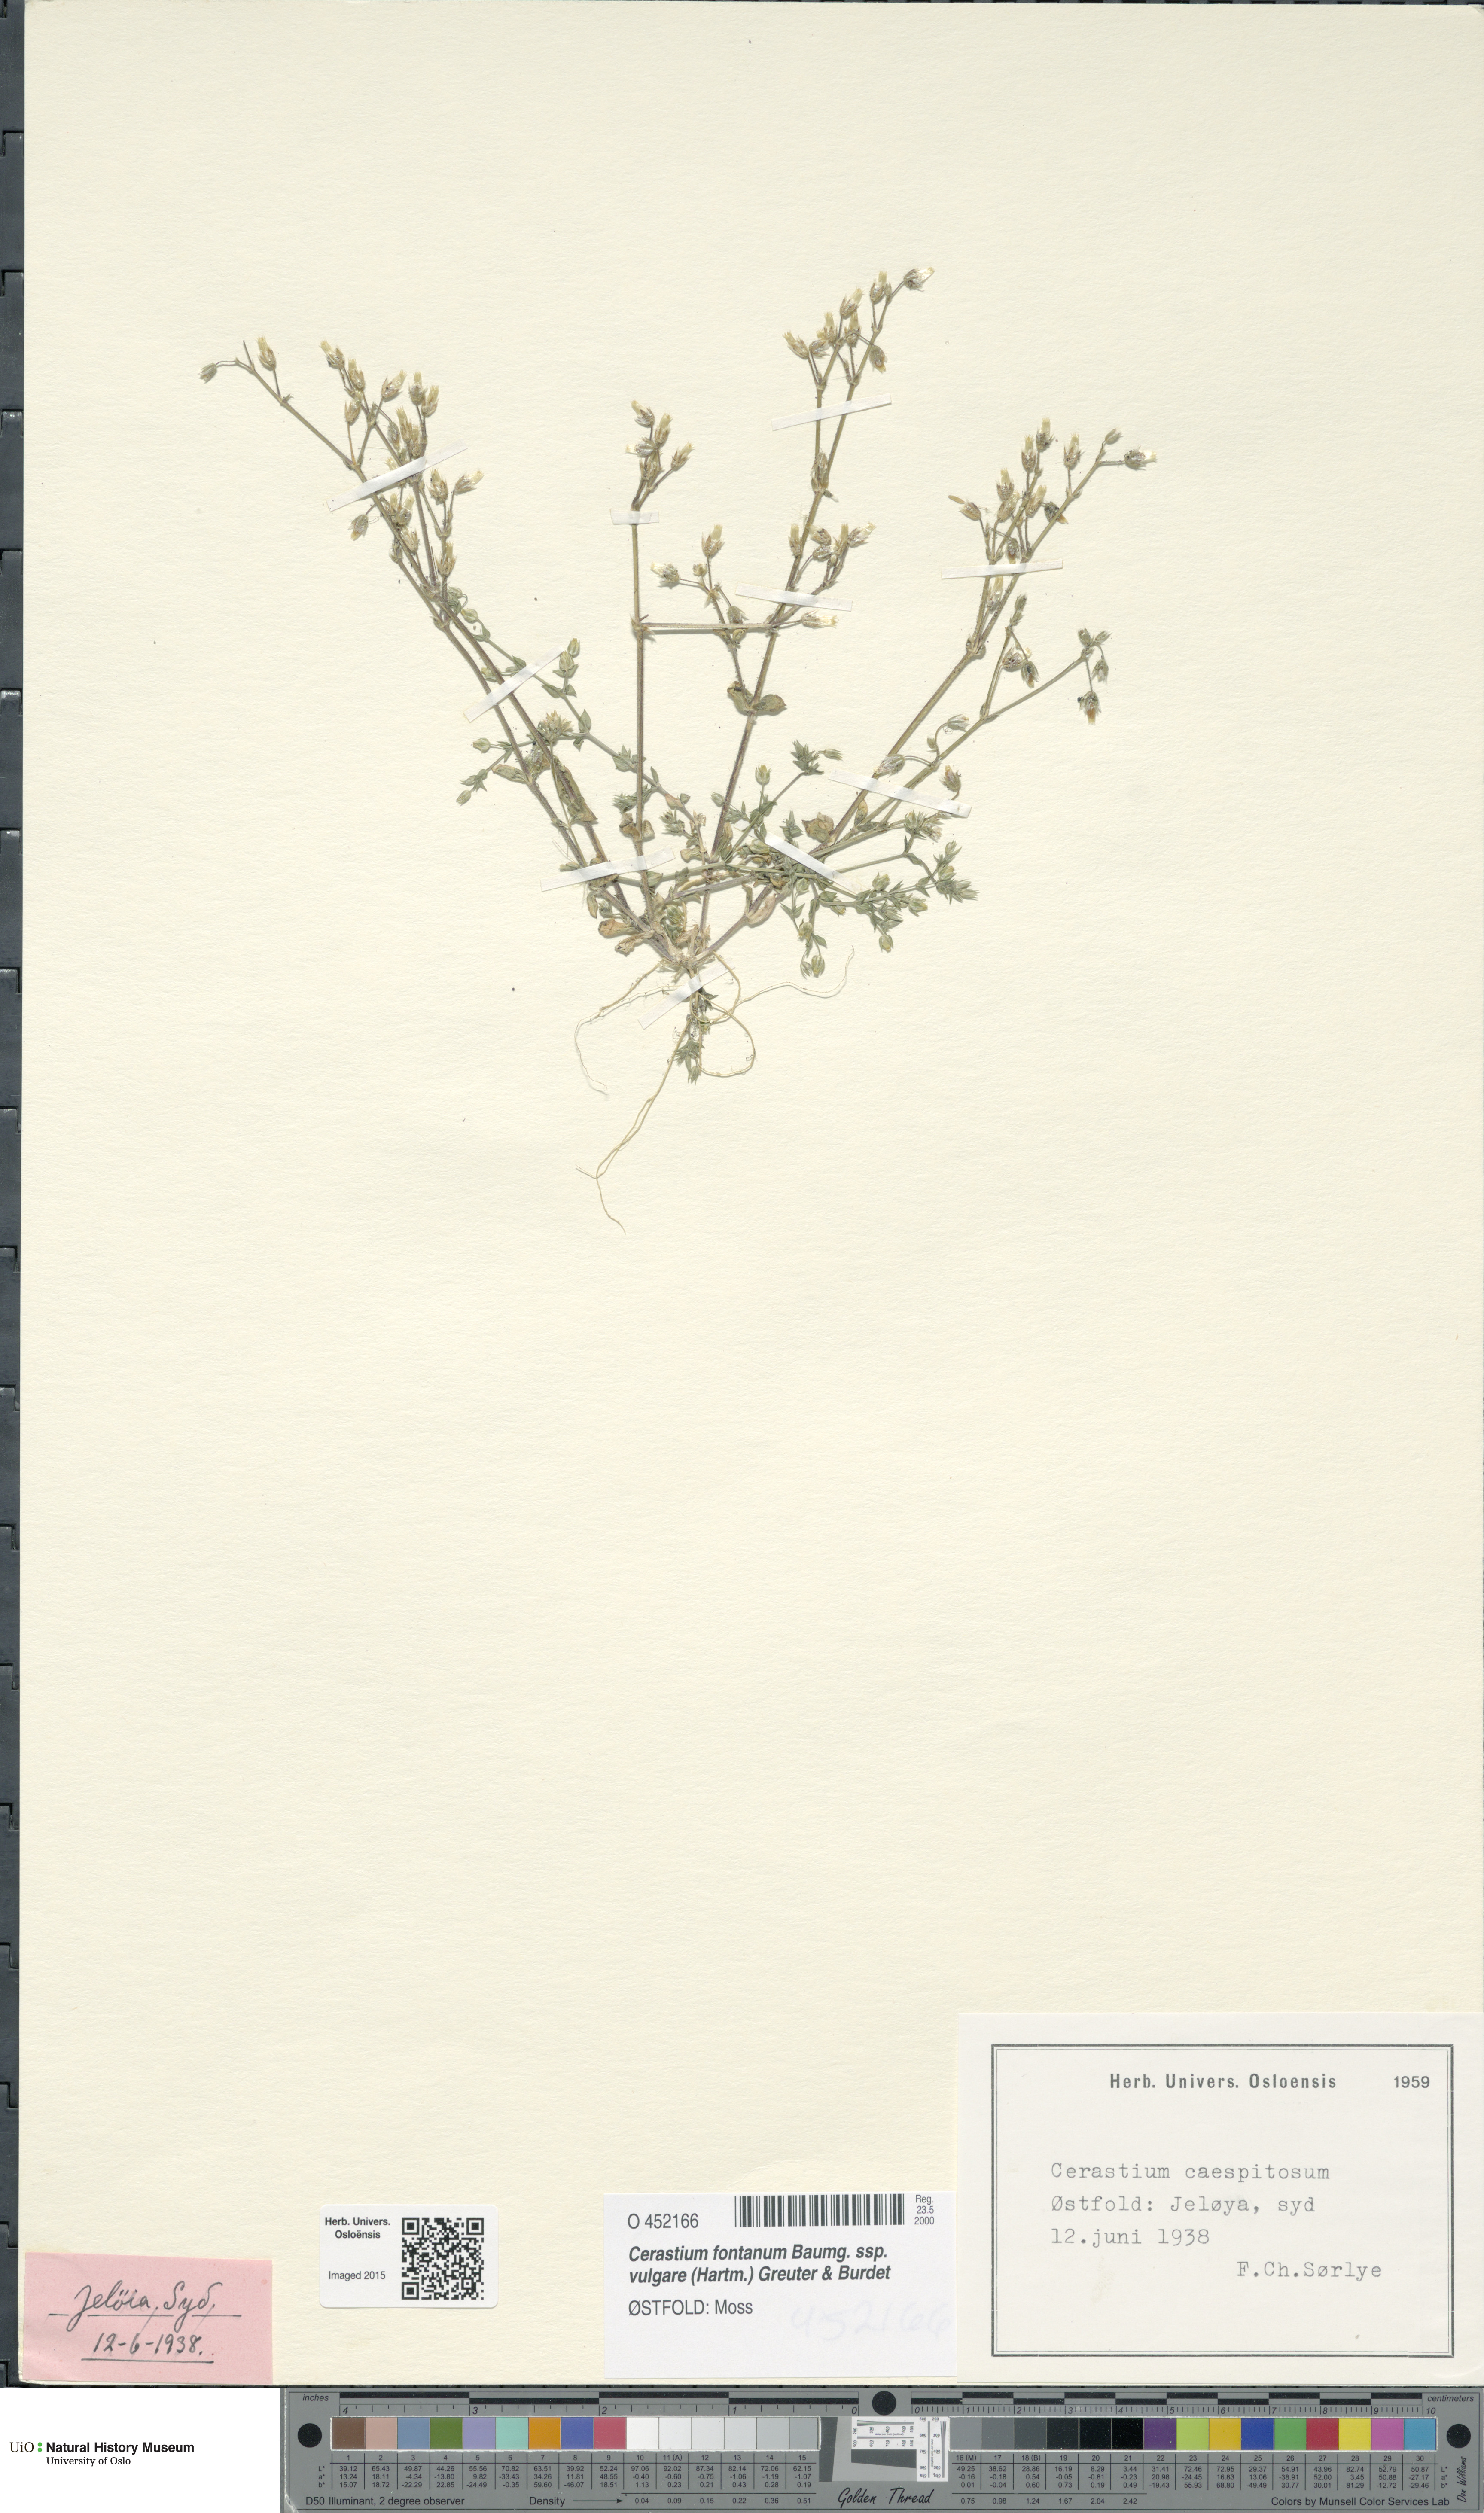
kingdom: Plantae
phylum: Tracheophyta
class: Magnoliopsida
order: Caryophyllales
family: Caryophyllaceae
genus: Cerastium
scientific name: Cerastium holosteoides
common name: Big chickweed
